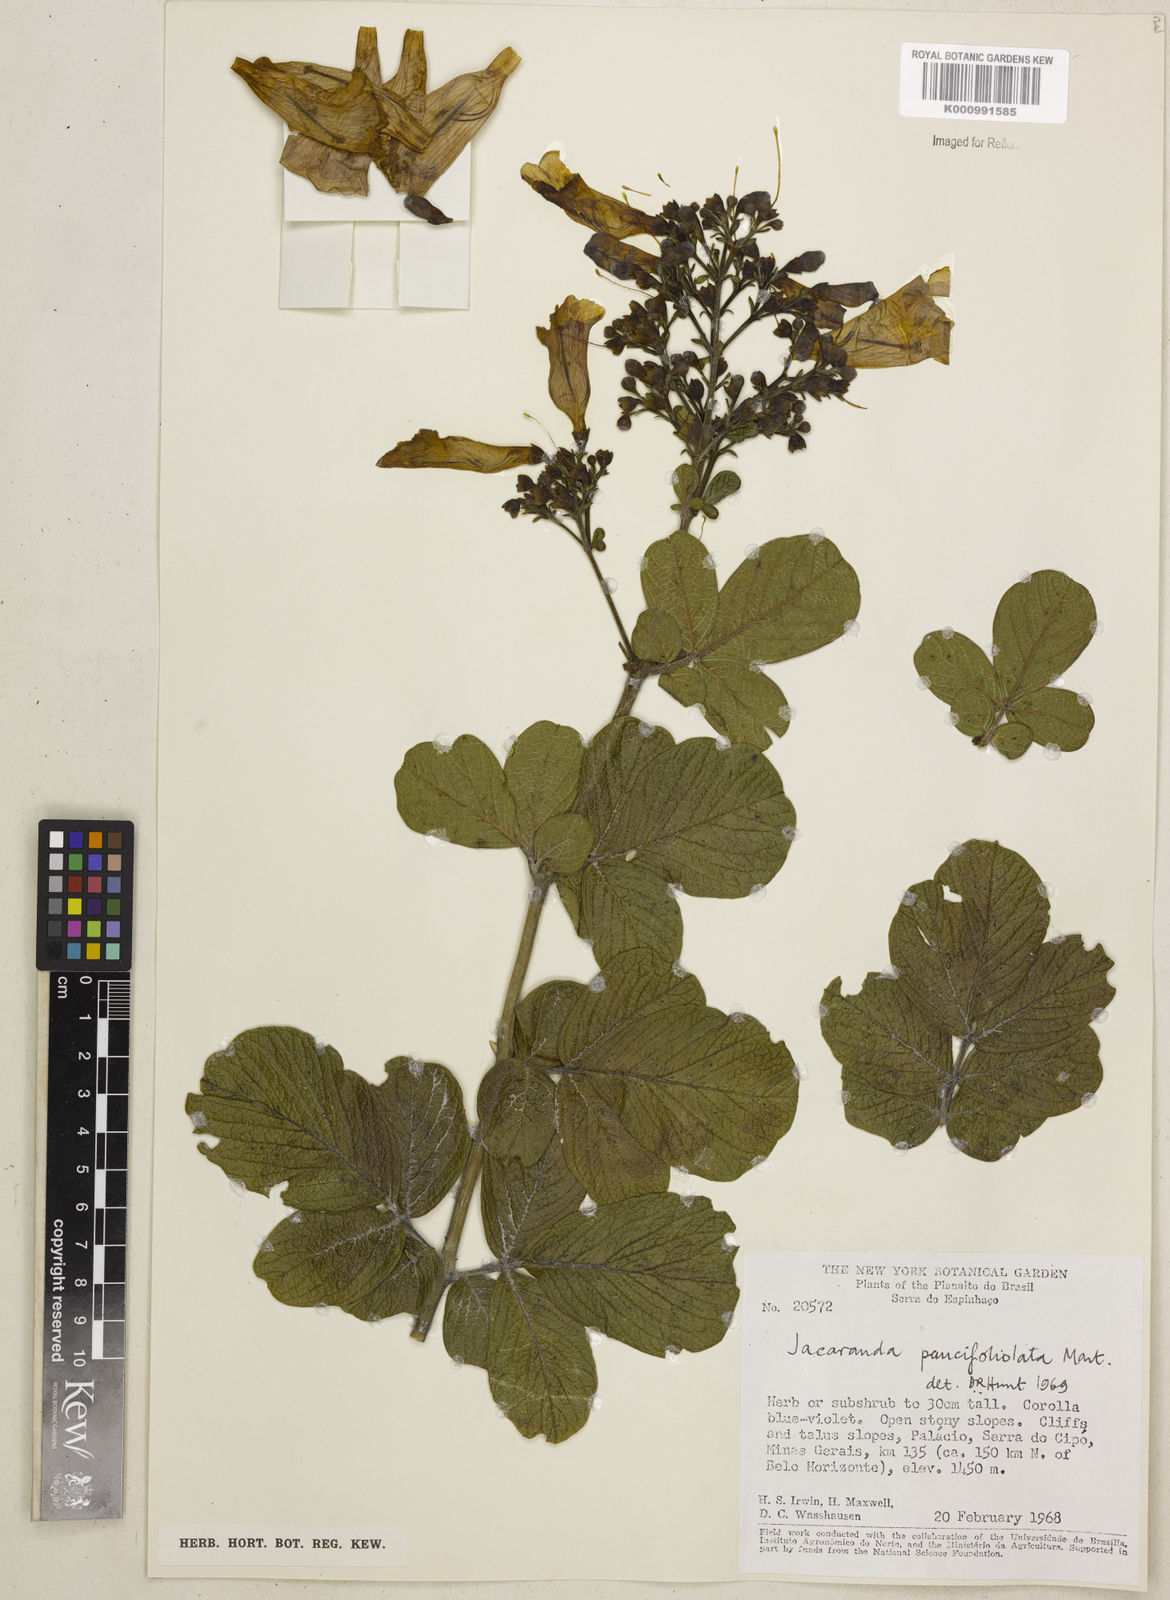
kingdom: Plantae
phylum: Tracheophyta
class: Magnoliopsida
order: Lamiales
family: Bignoniaceae
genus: Jacaranda
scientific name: Jacaranda
